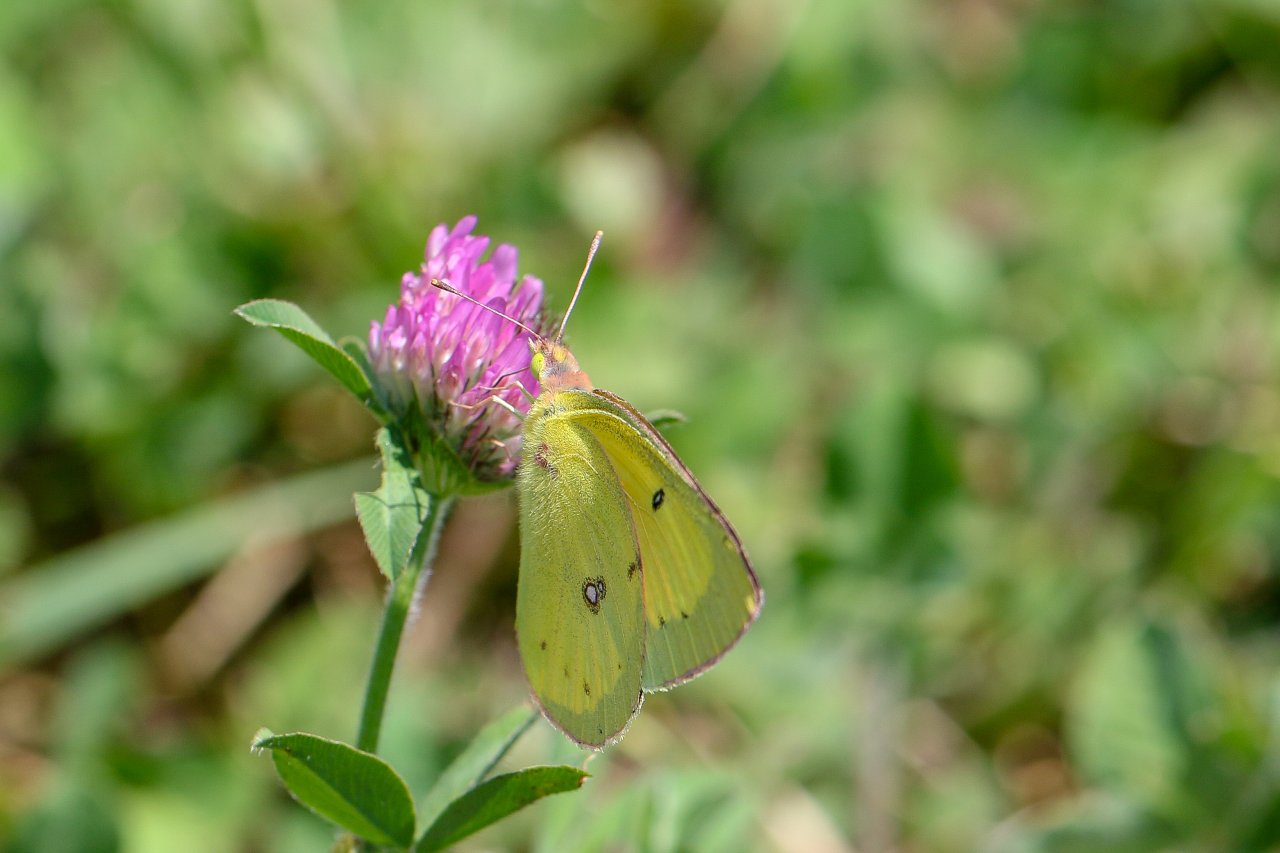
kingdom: Animalia
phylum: Arthropoda
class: Insecta
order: Lepidoptera
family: Pieridae
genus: Colias
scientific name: Colias philodice
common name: Clouded Sulphur
